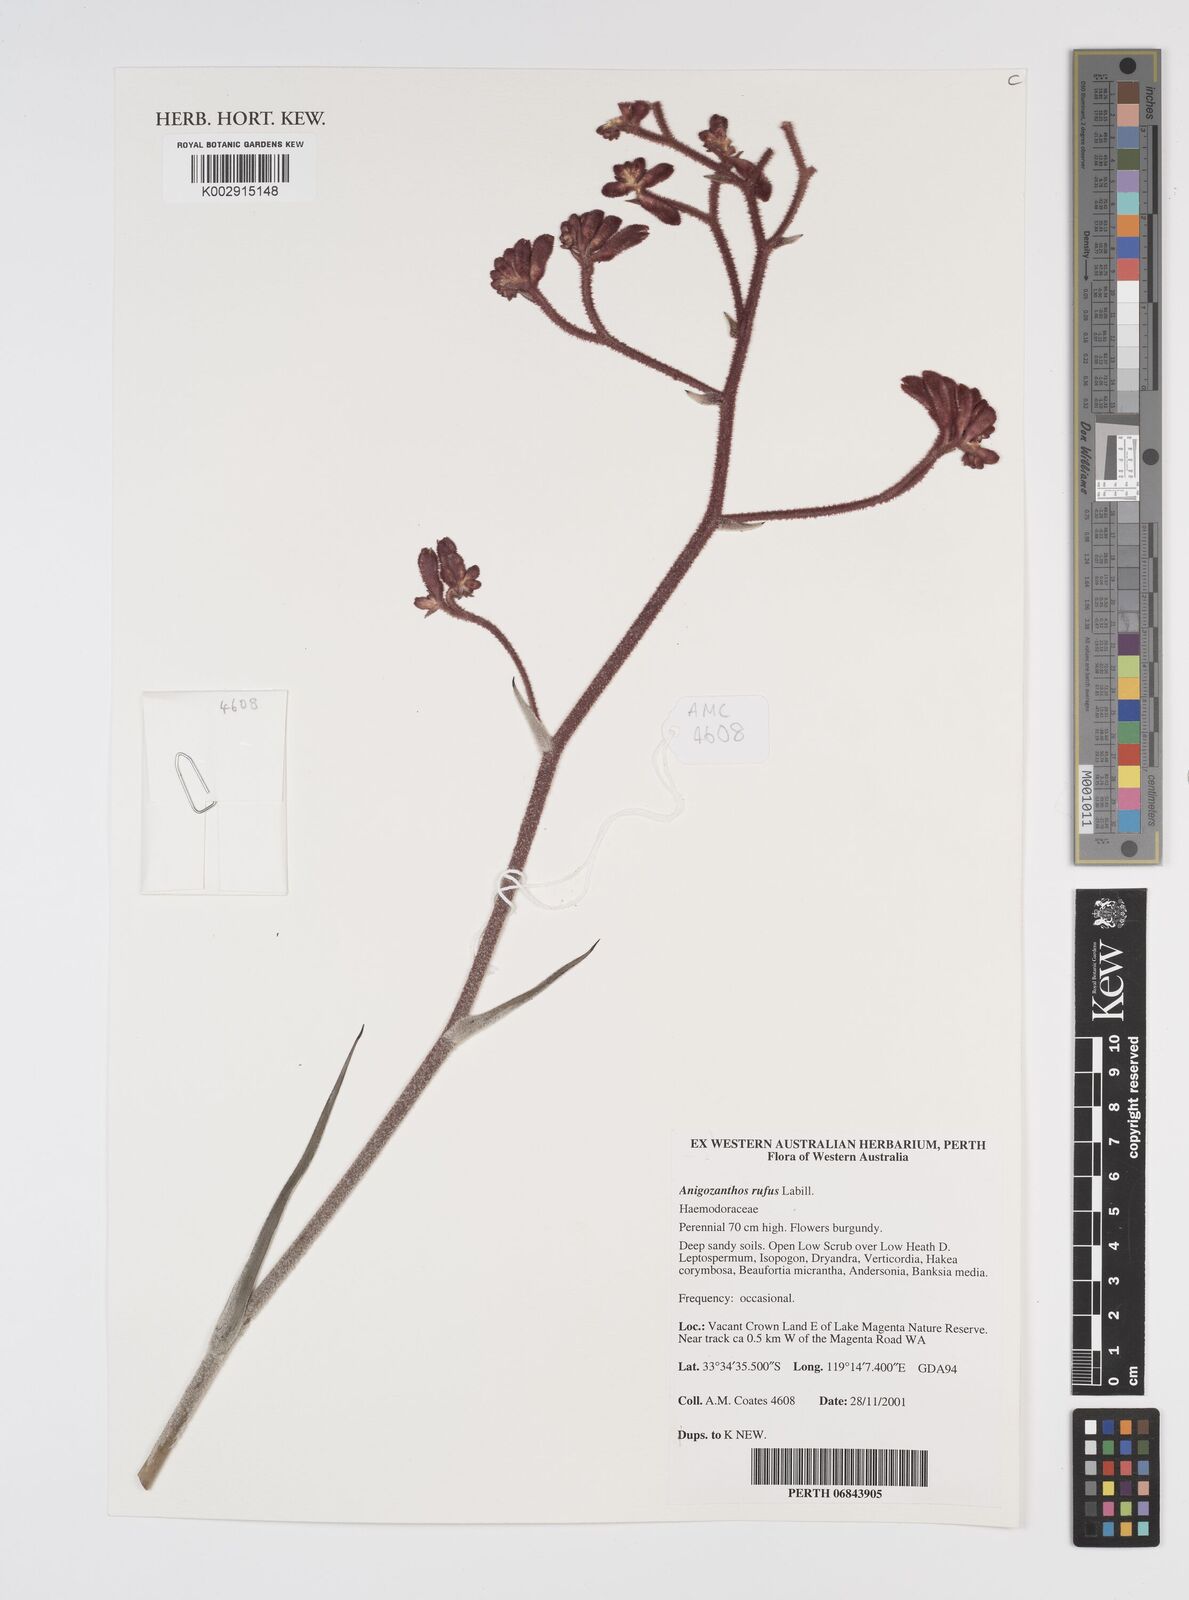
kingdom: Plantae
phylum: Tracheophyta
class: Liliopsida
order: Commelinales
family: Haemodoraceae
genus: Anigozanthos
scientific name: Anigozanthos rufus
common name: Red kangaroo-paw
